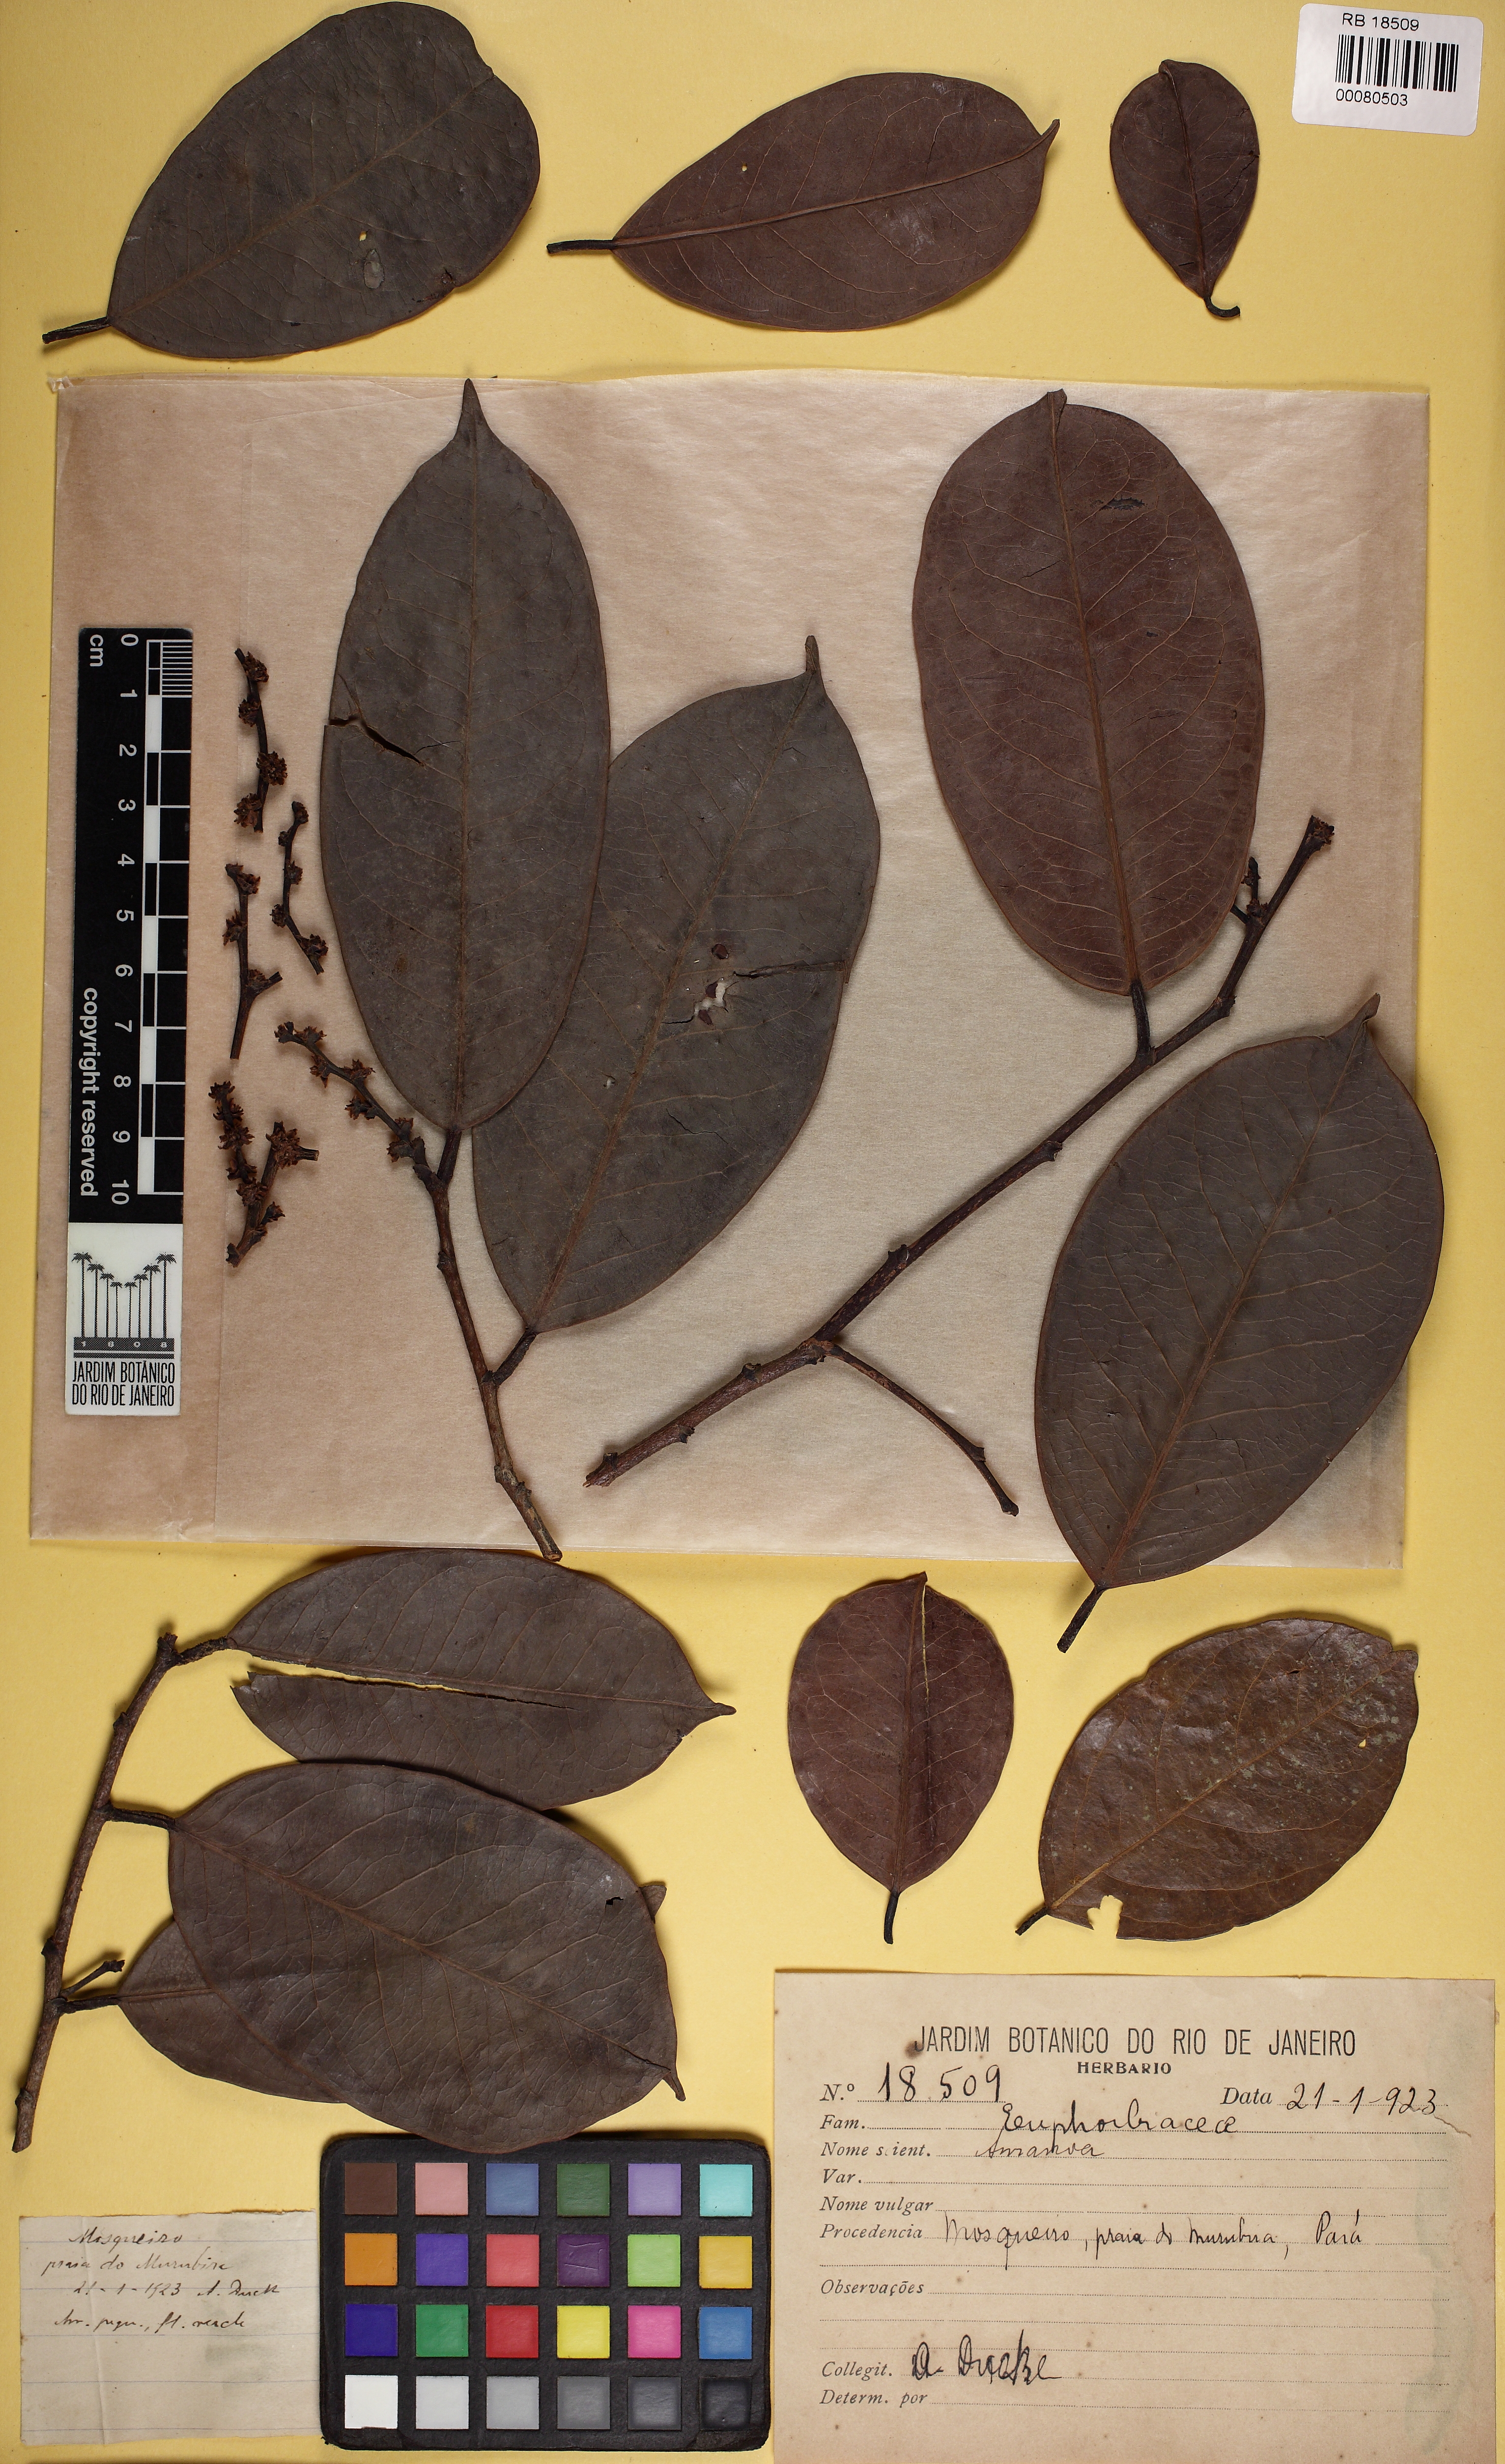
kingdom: Plantae
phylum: Tracheophyta
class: Magnoliopsida
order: Malpighiales
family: Phyllanthaceae
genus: Amanoa
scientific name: Amanoa
